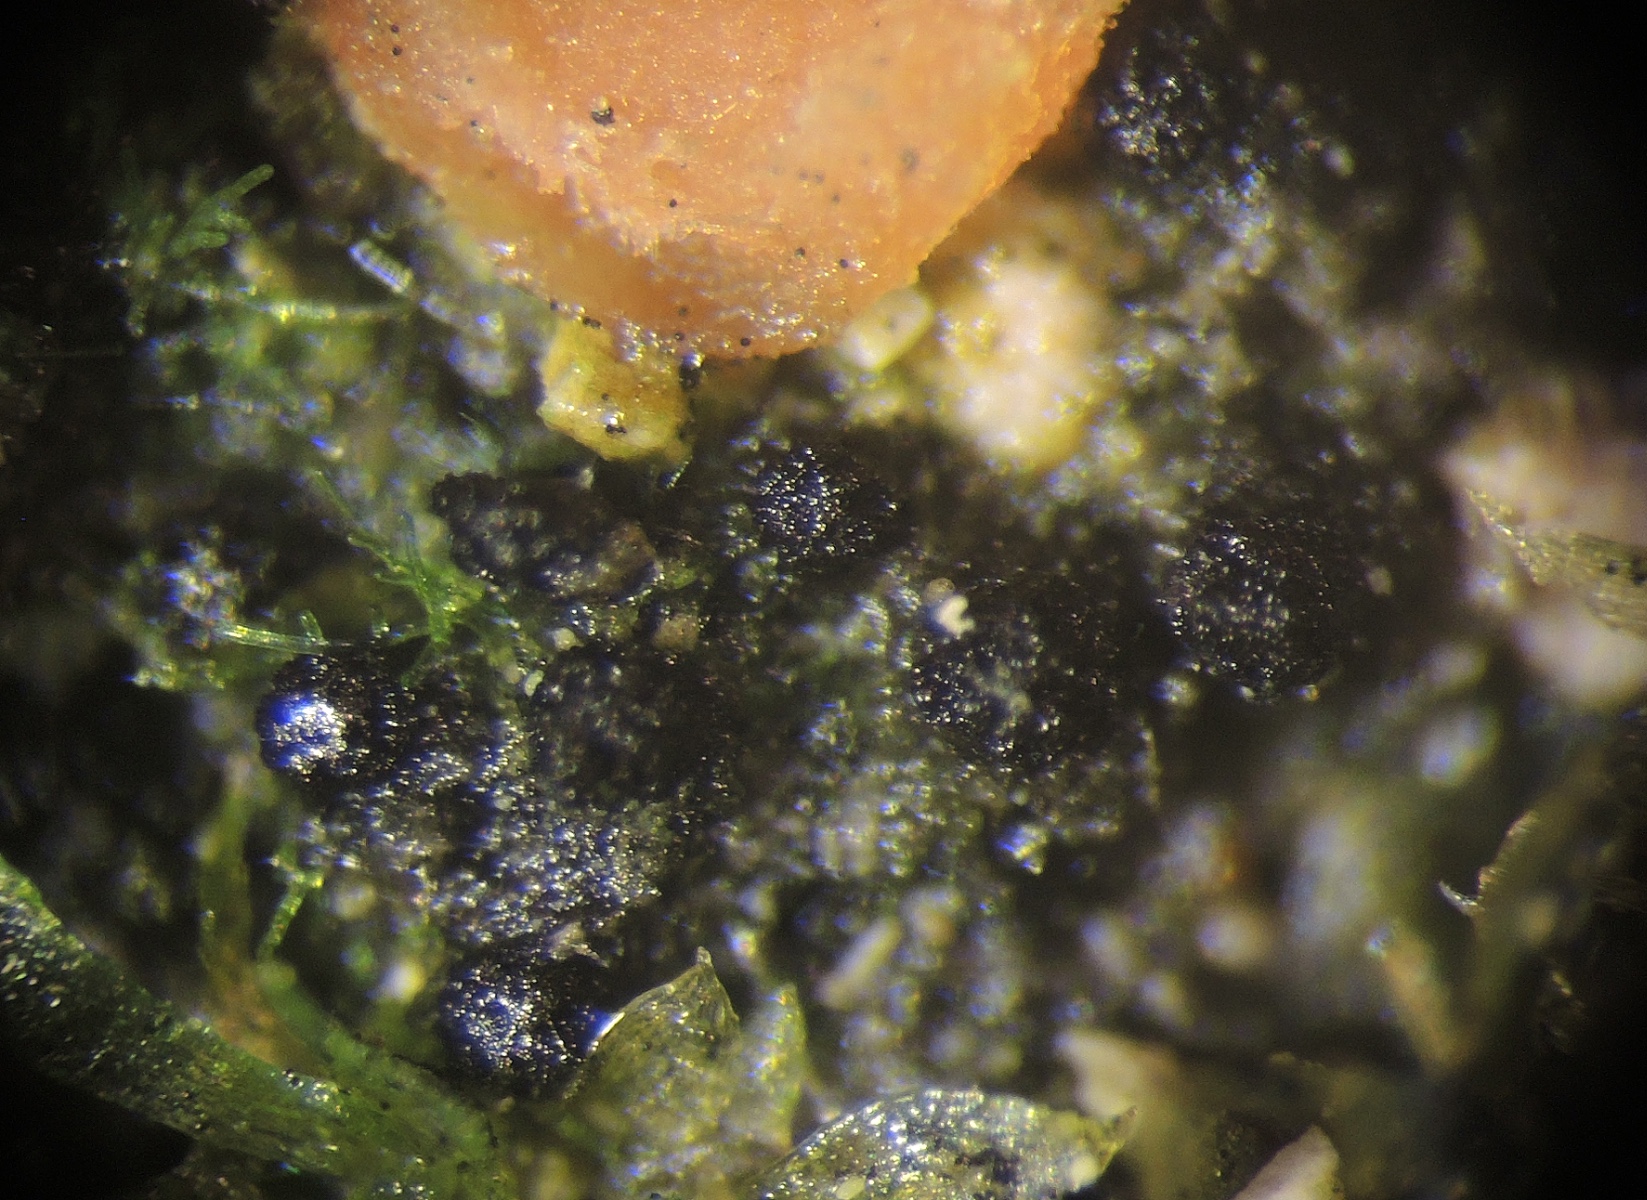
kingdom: Fungi
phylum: Ascomycota
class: Sordariomycetes
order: Sordariales
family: Neoschizotheciaceae
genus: Jugulospora
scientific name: Jugulospora carbonaria
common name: brandplet-kernesvamp
